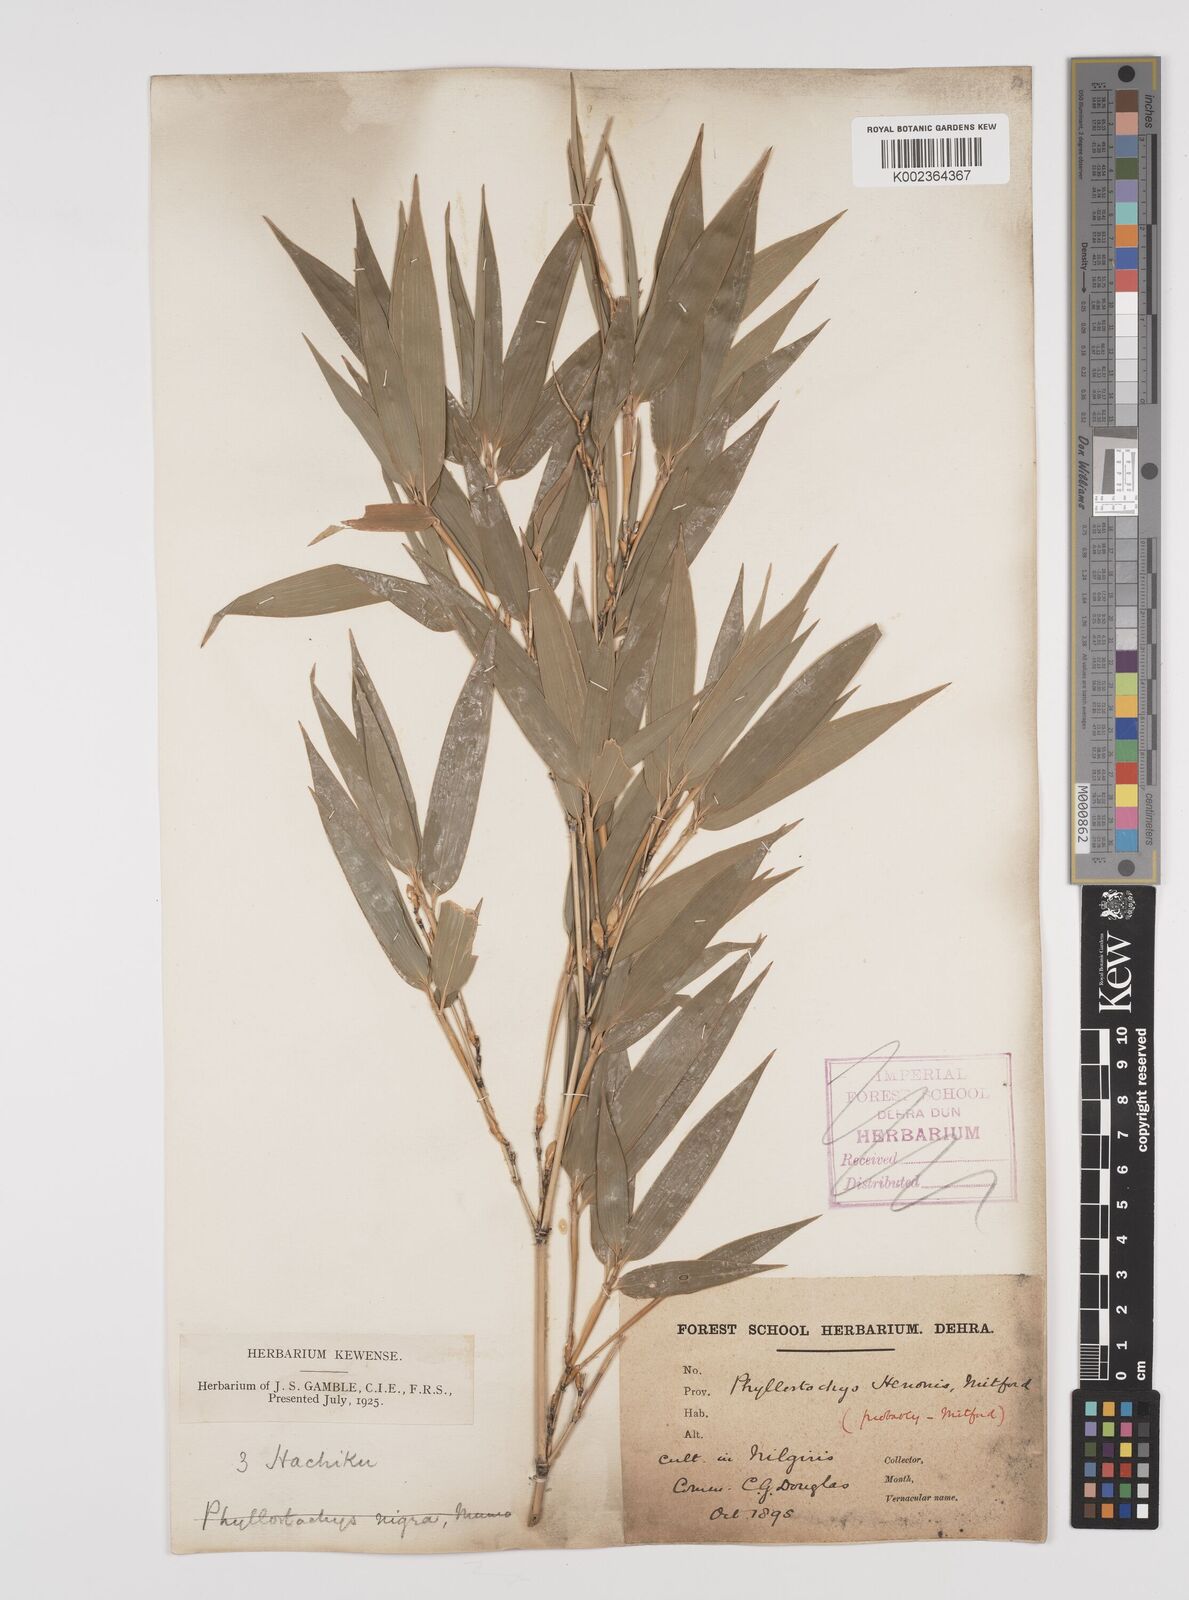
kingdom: Plantae
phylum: Tracheophyta
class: Liliopsida
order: Poales
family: Poaceae
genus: Phyllostachys
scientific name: Phyllostachys nigra
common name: Black bamboo
